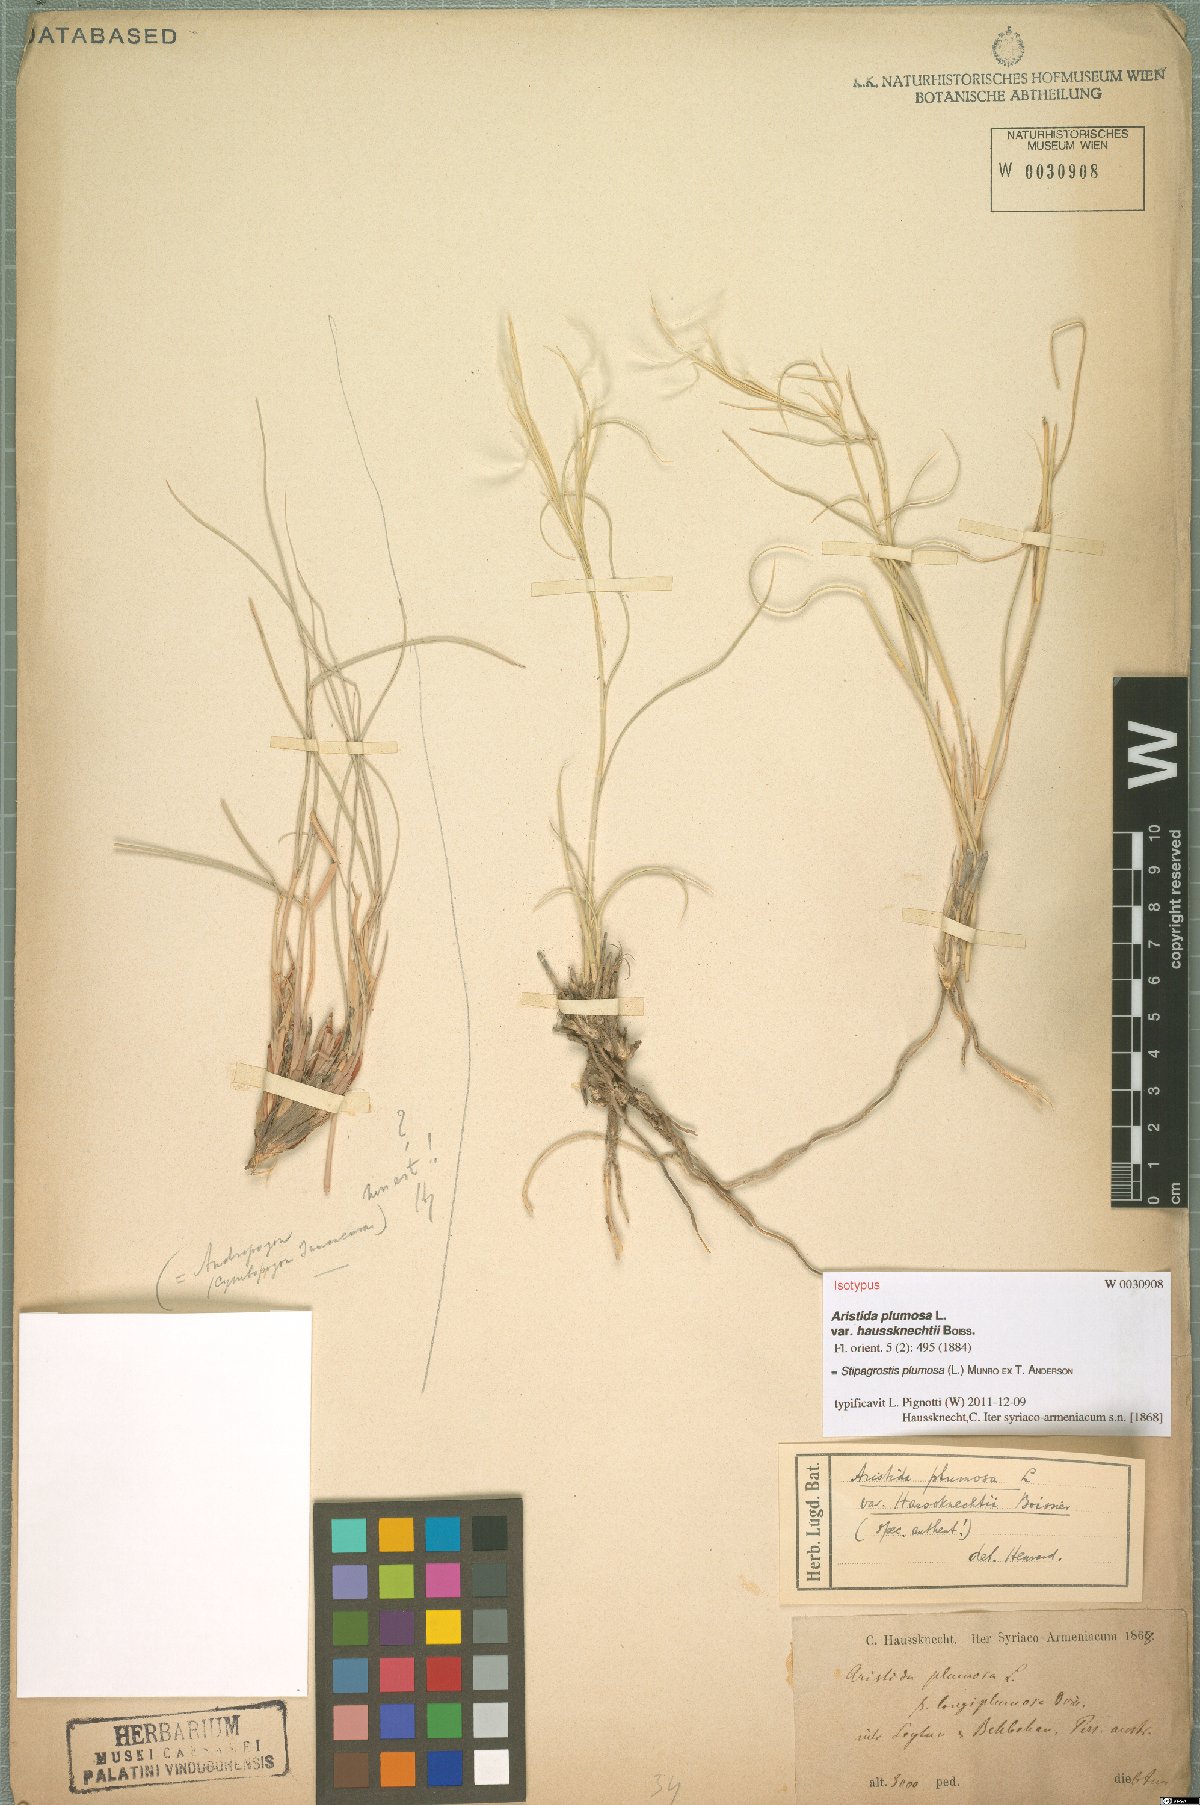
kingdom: Plantae
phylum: Tracheophyta
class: Liliopsida
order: Poales
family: Poaceae
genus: Stipagrostis
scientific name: Stipagrostis plumosa
